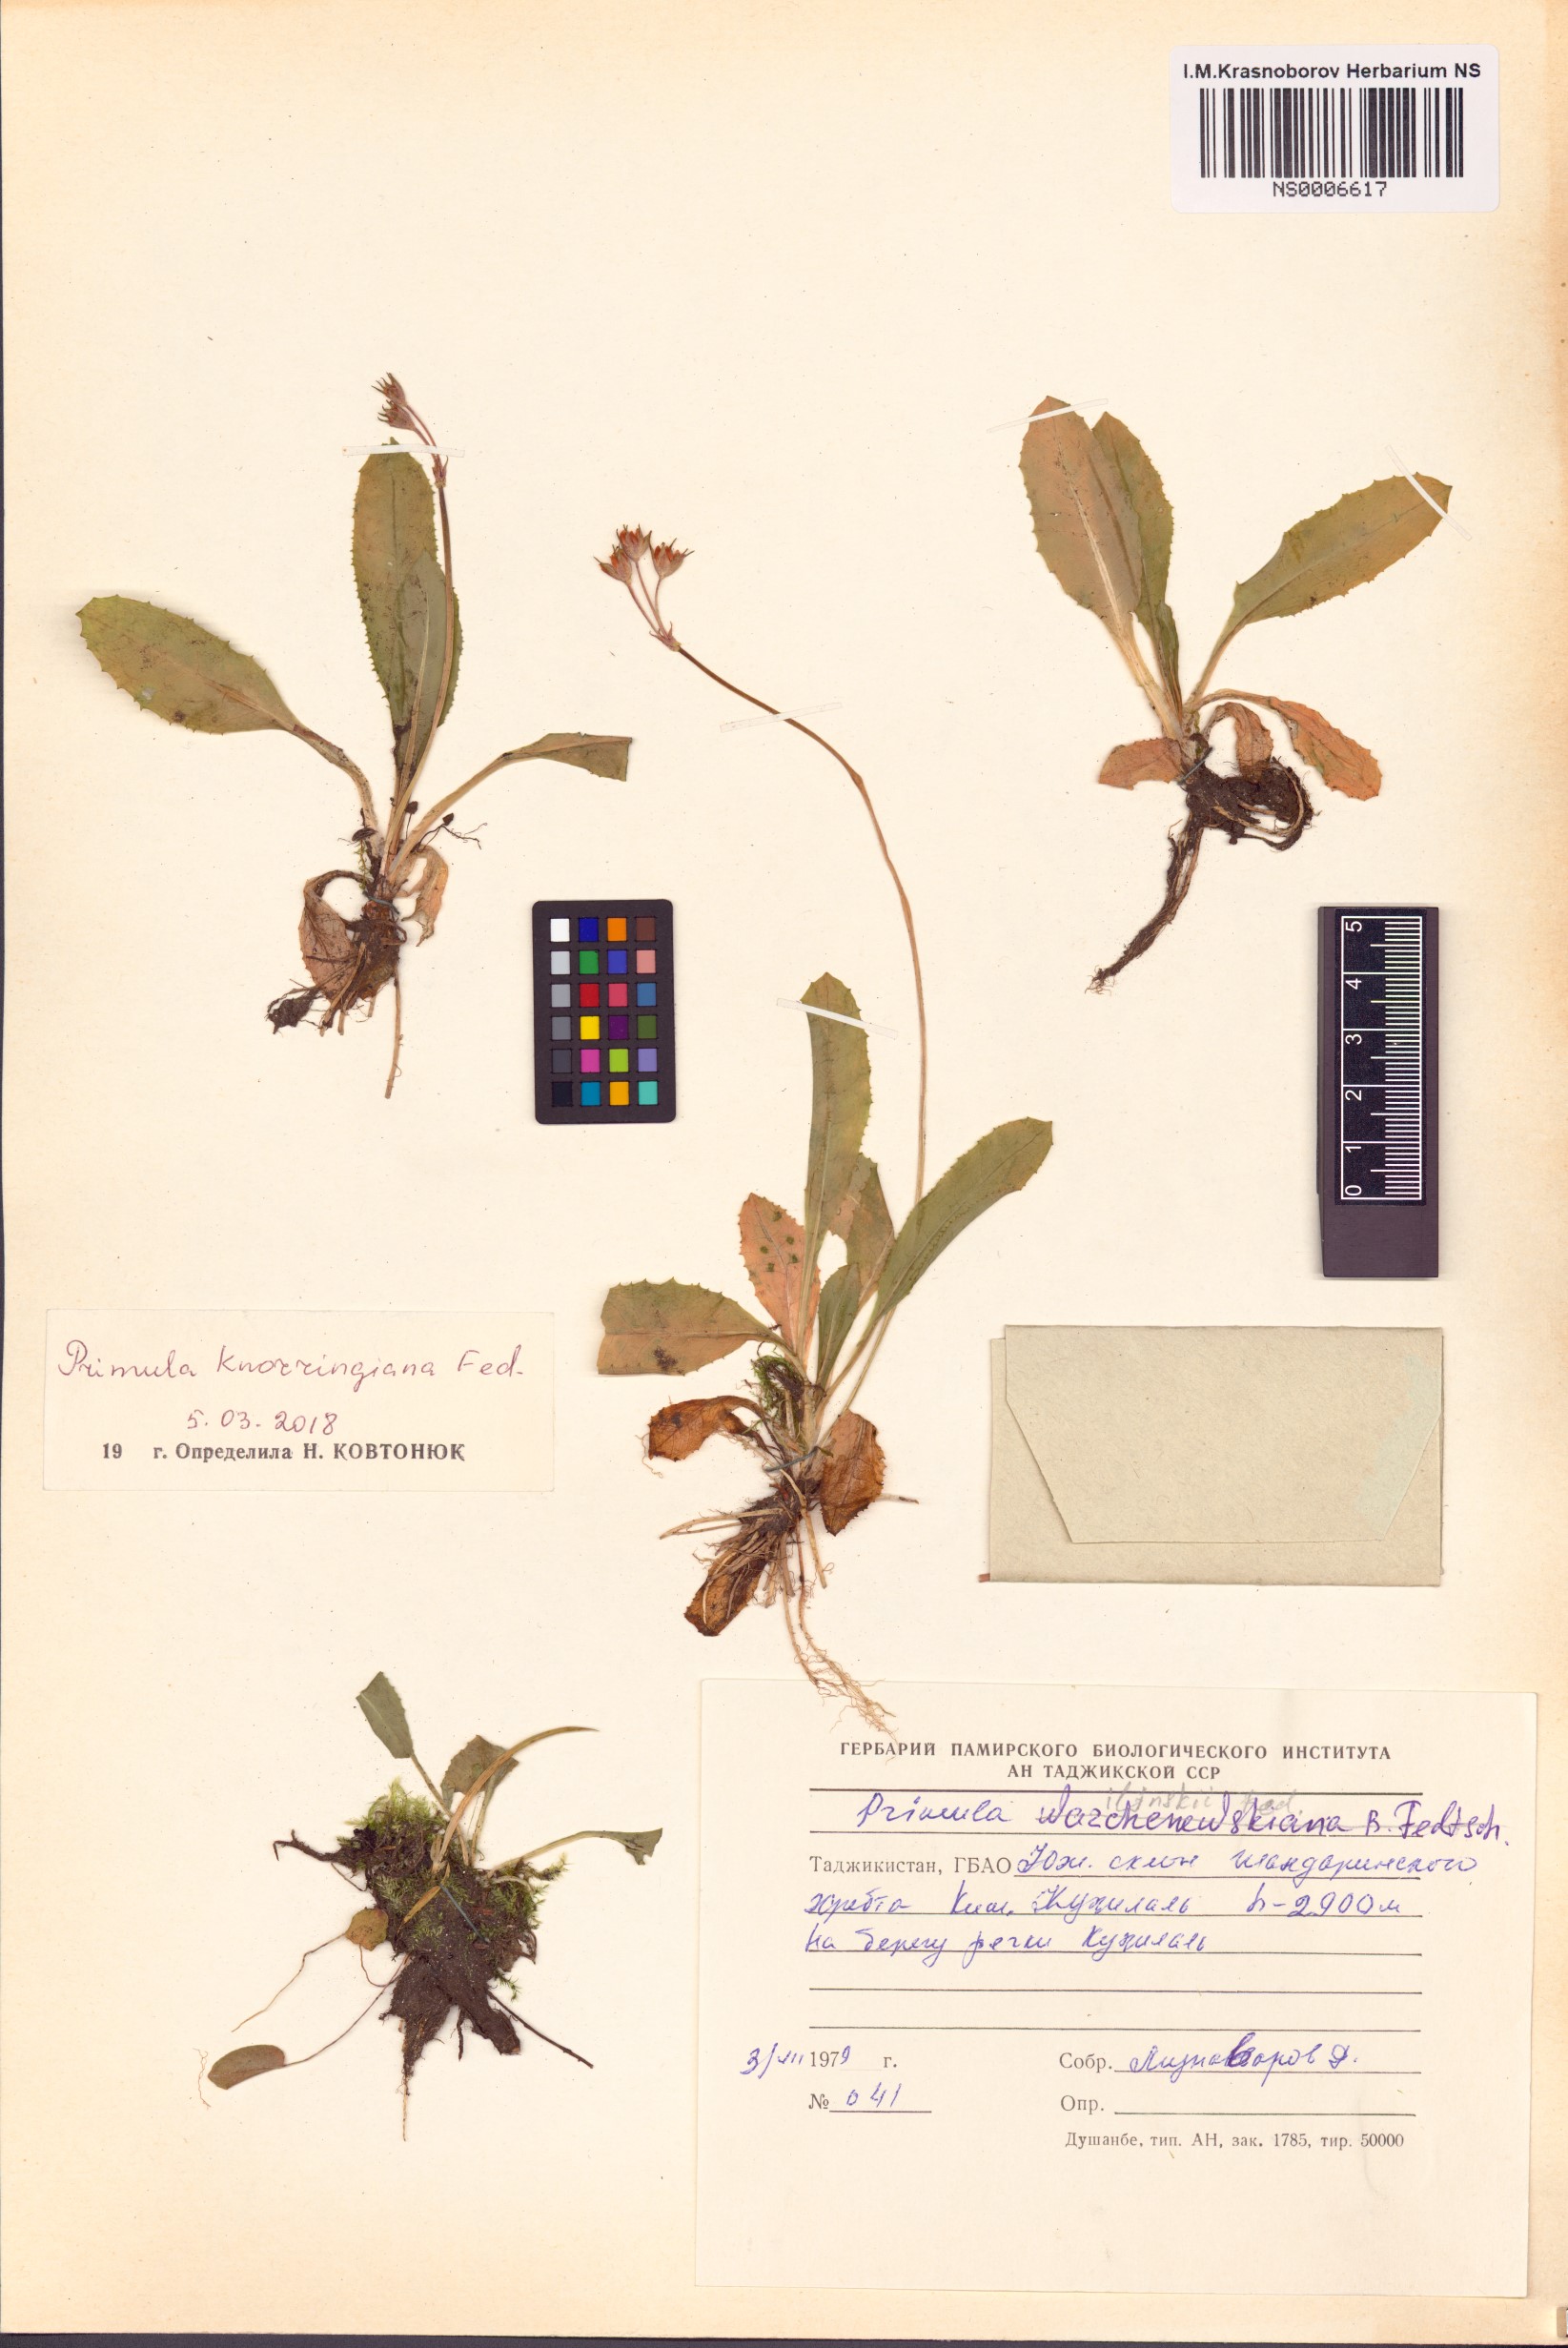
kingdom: Plantae
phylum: Tracheophyta
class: Magnoliopsida
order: Ericales
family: Primulaceae
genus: Primula
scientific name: Primula knorringiana
